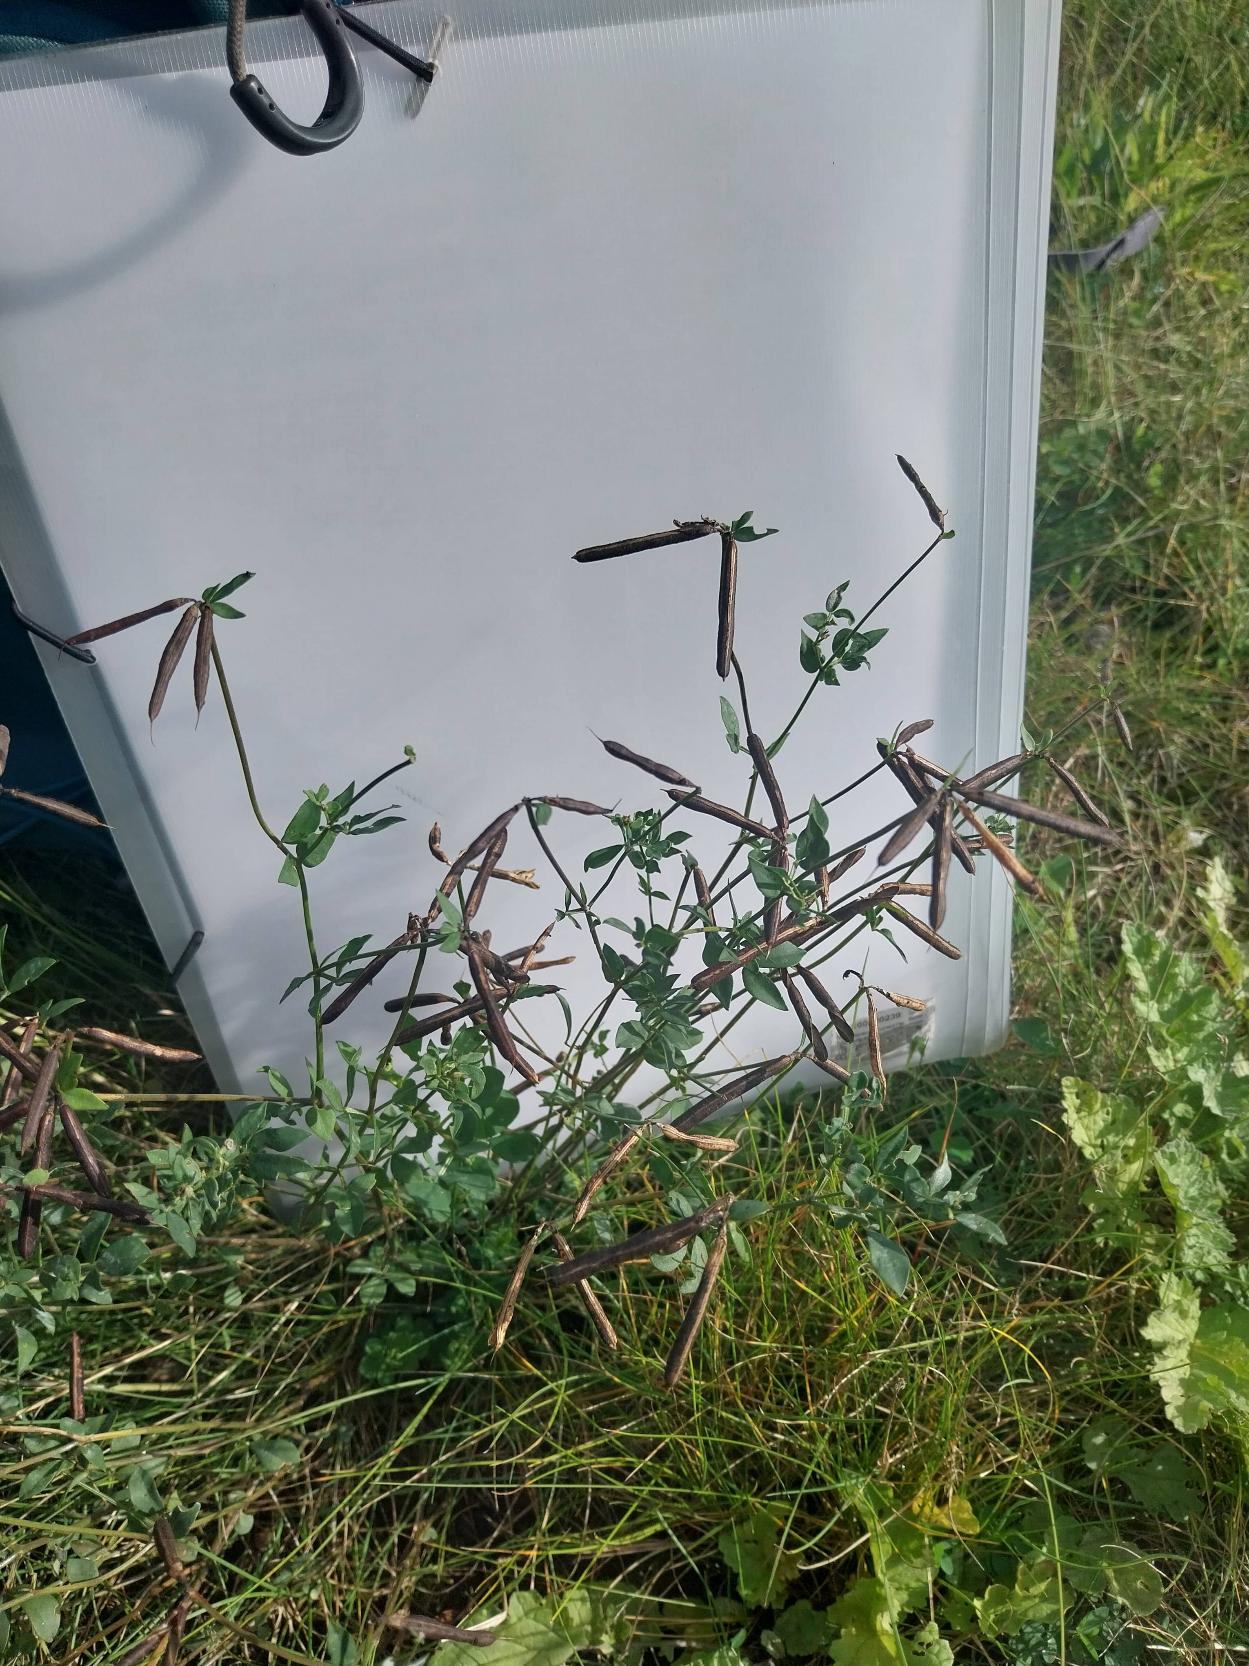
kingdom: Plantae
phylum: Tracheophyta
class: Magnoliopsida
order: Fabales
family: Fabaceae
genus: Lotus
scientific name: Lotus corniculatus
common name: Almindelig kællingetand
